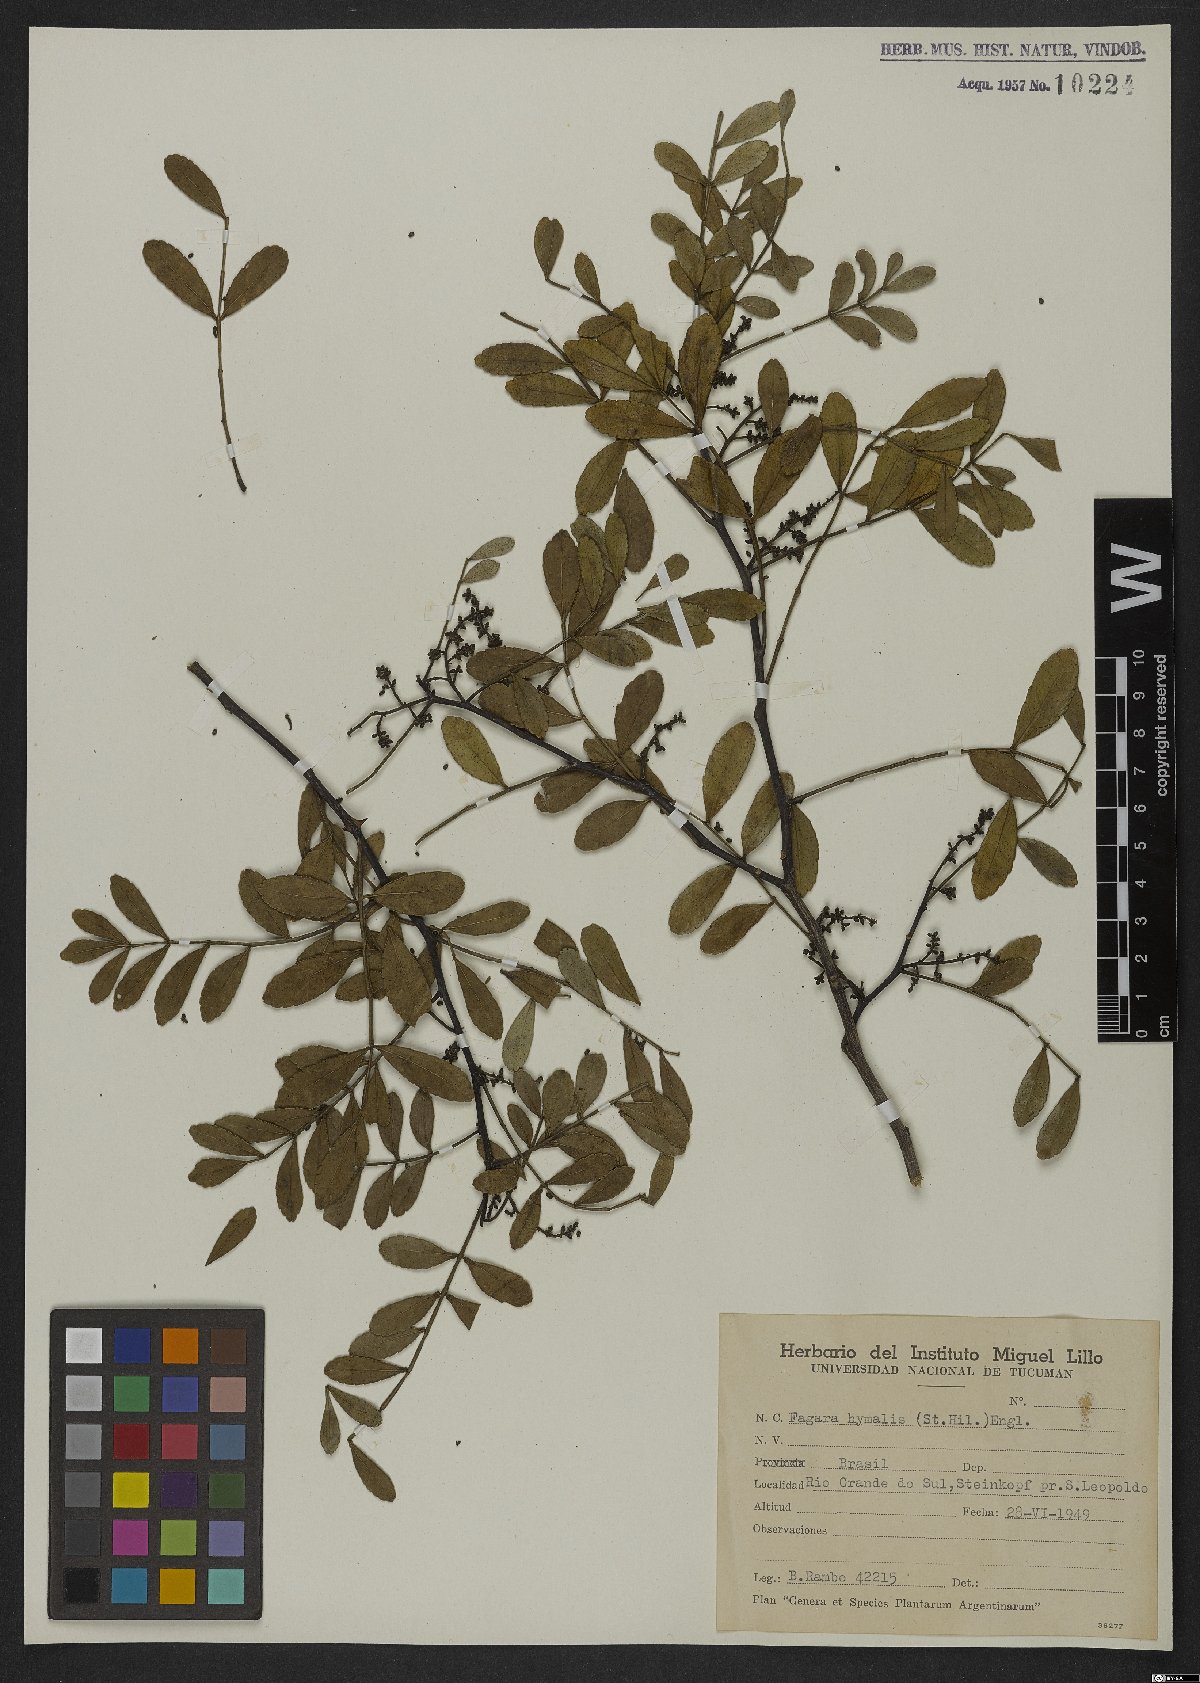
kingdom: Plantae
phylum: Tracheophyta
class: Magnoliopsida
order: Sapindales
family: Rutaceae
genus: Zanthoxylum
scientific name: Zanthoxylum fagara
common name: Lime prickly-ash
